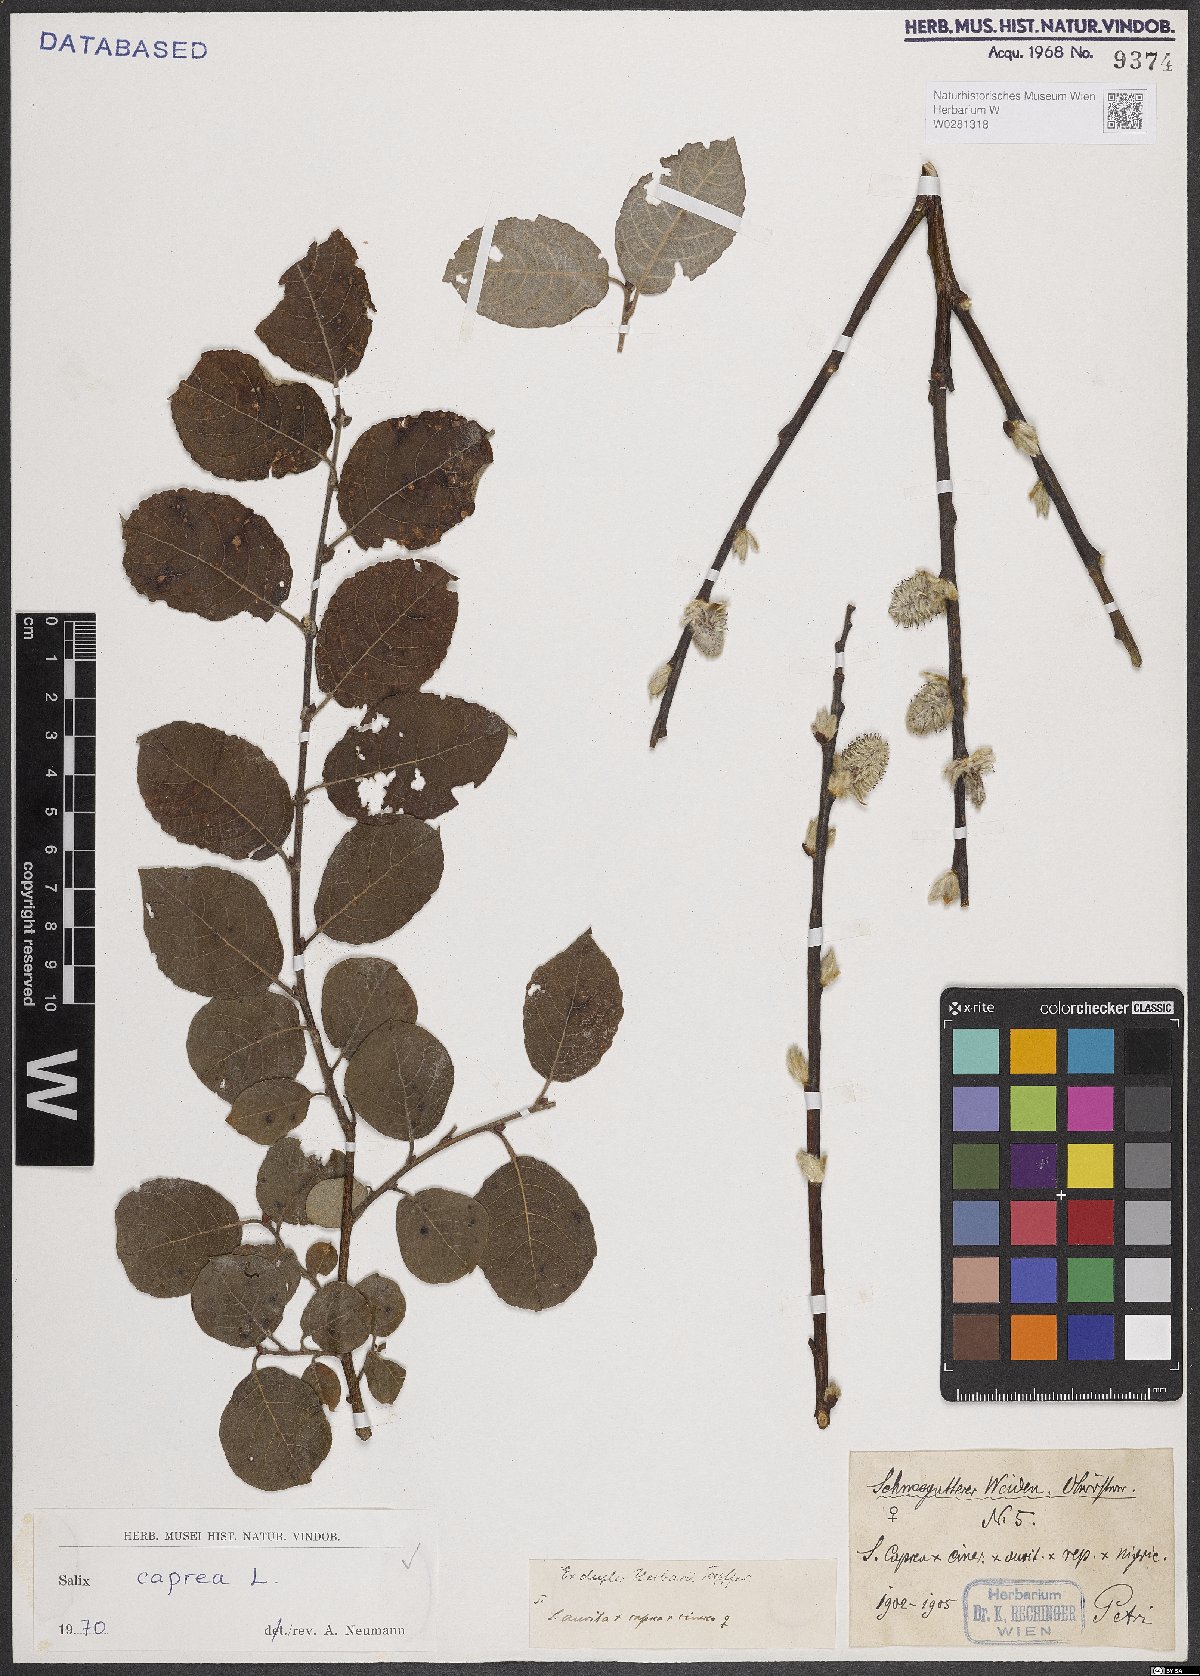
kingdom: Plantae
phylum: Tracheophyta
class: Magnoliopsida
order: Malpighiales
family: Salicaceae
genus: Salix
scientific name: Salix caprea
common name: Goat willow
